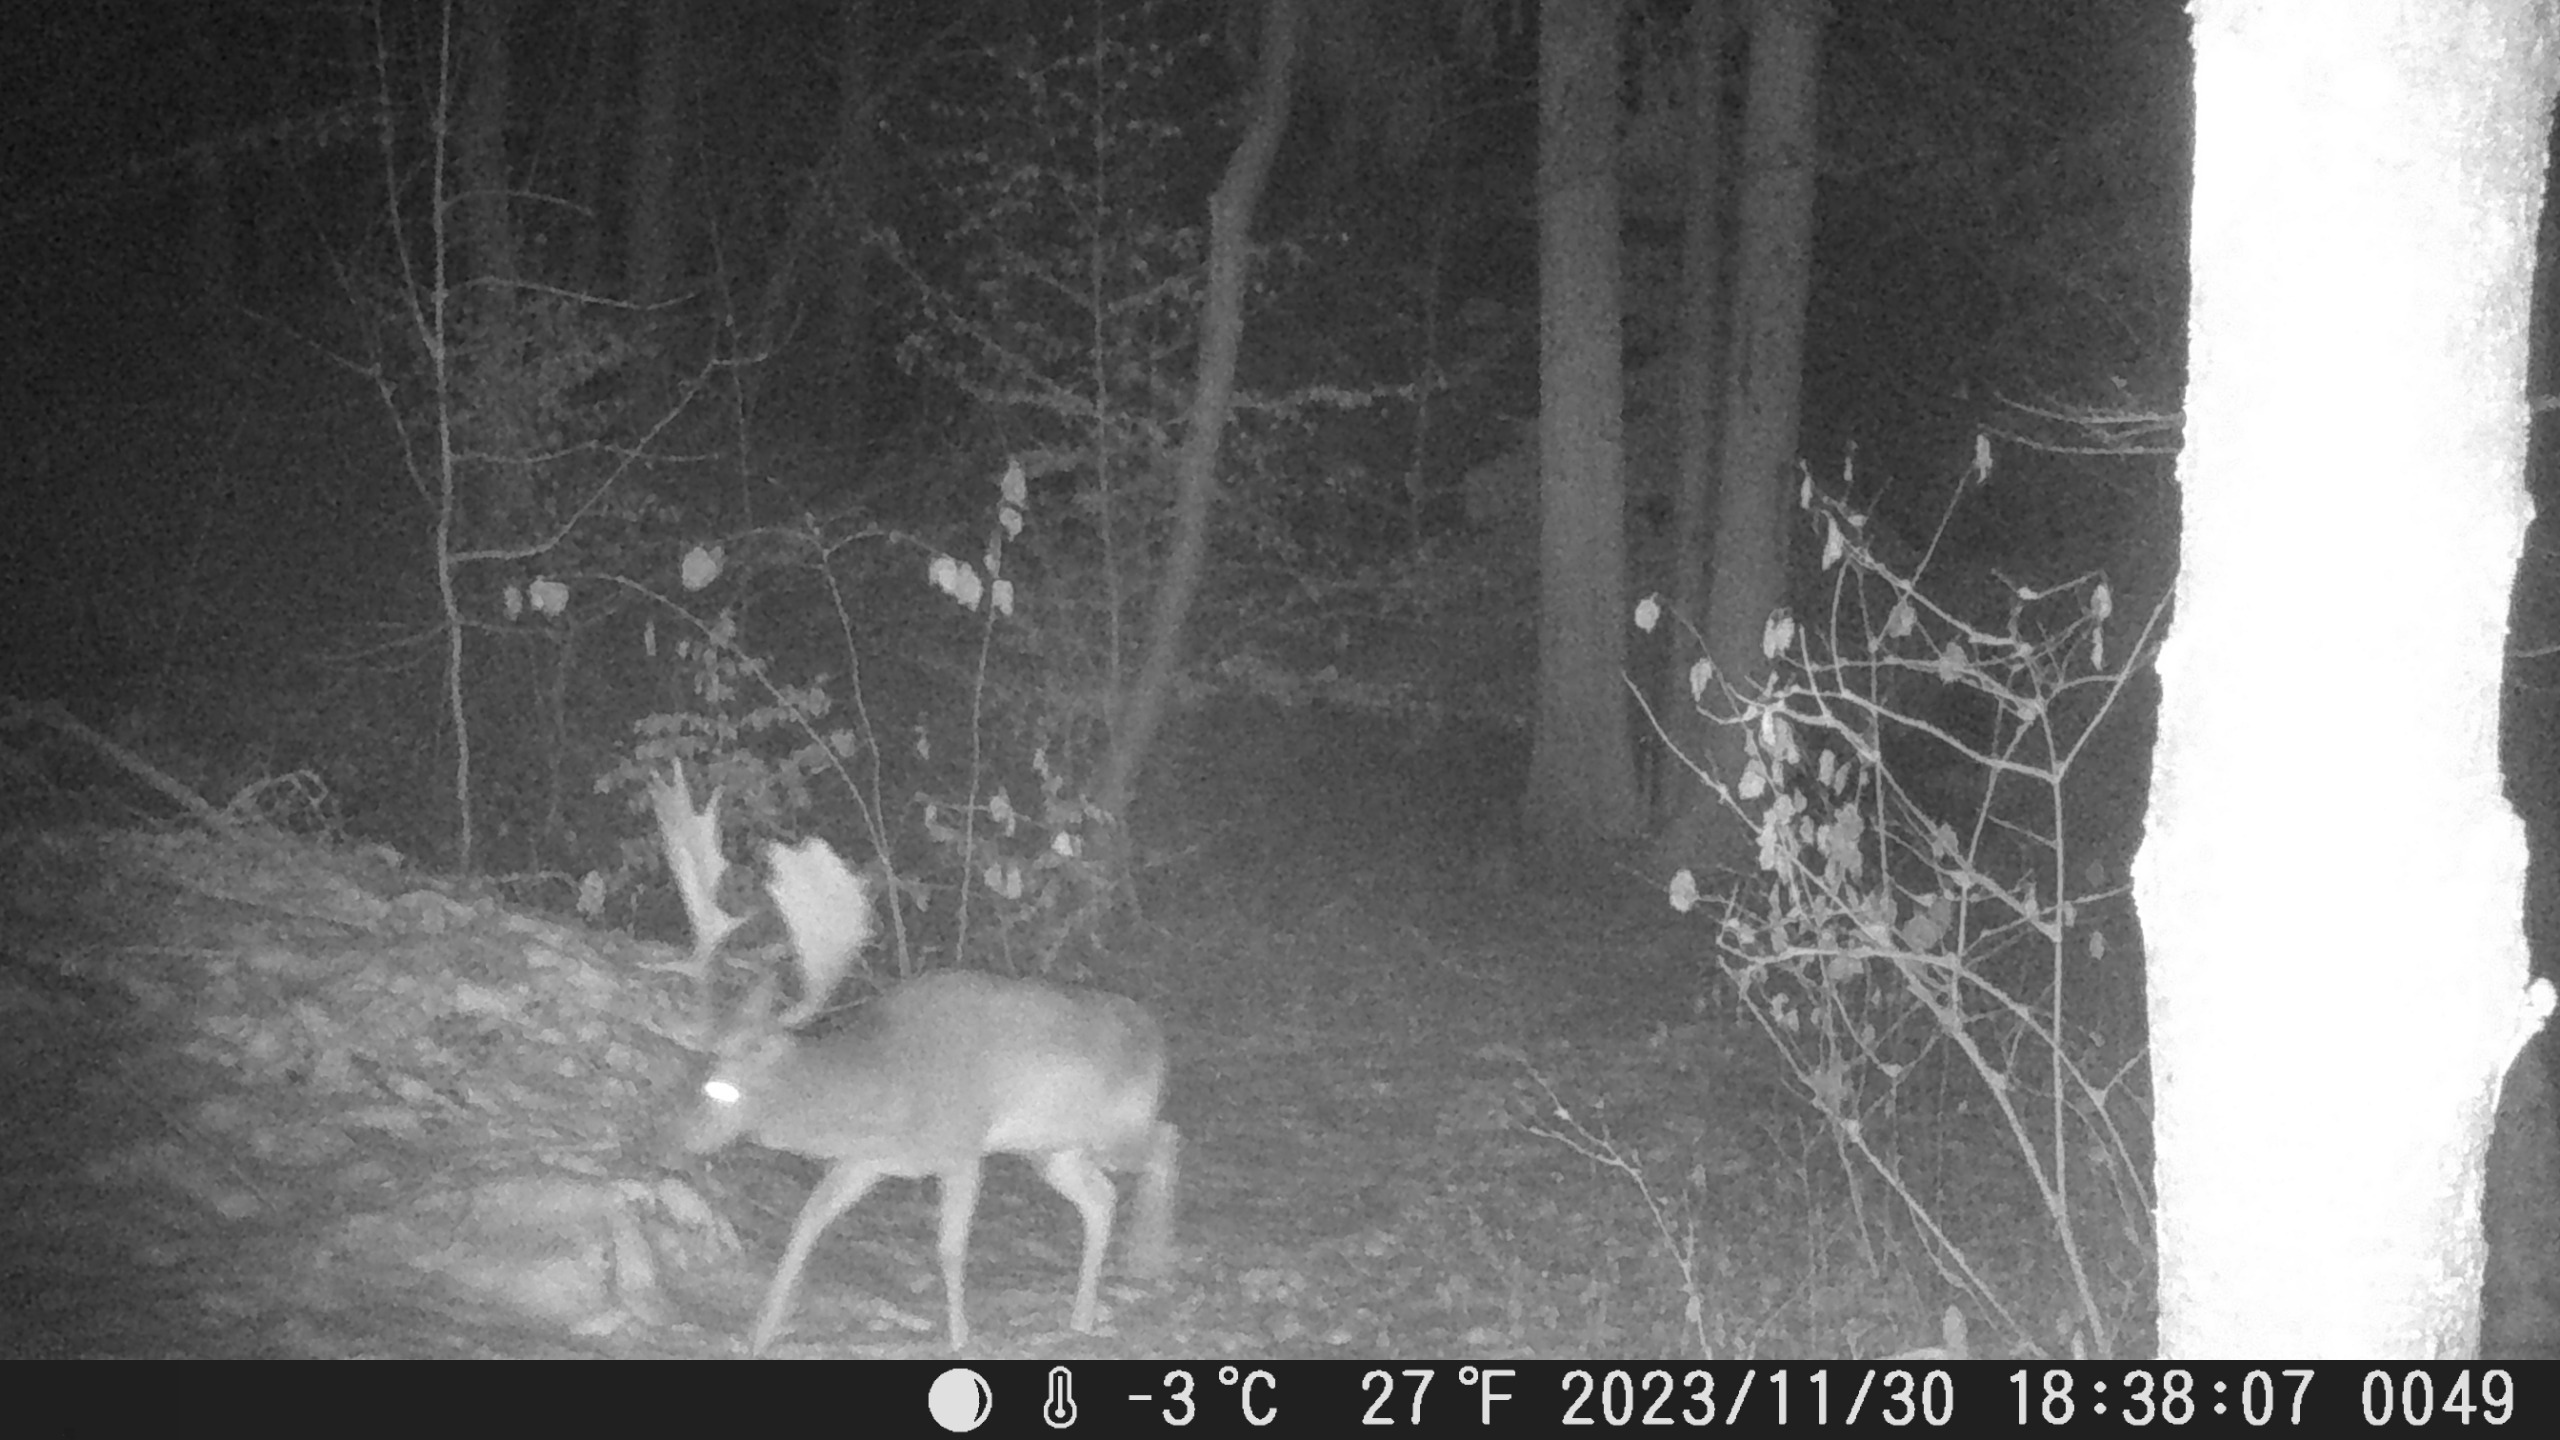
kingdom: Animalia
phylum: Chordata
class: Mammalia
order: Artiodactyla
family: Cervidae
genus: Dama
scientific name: Dama dama
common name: Dådyr
